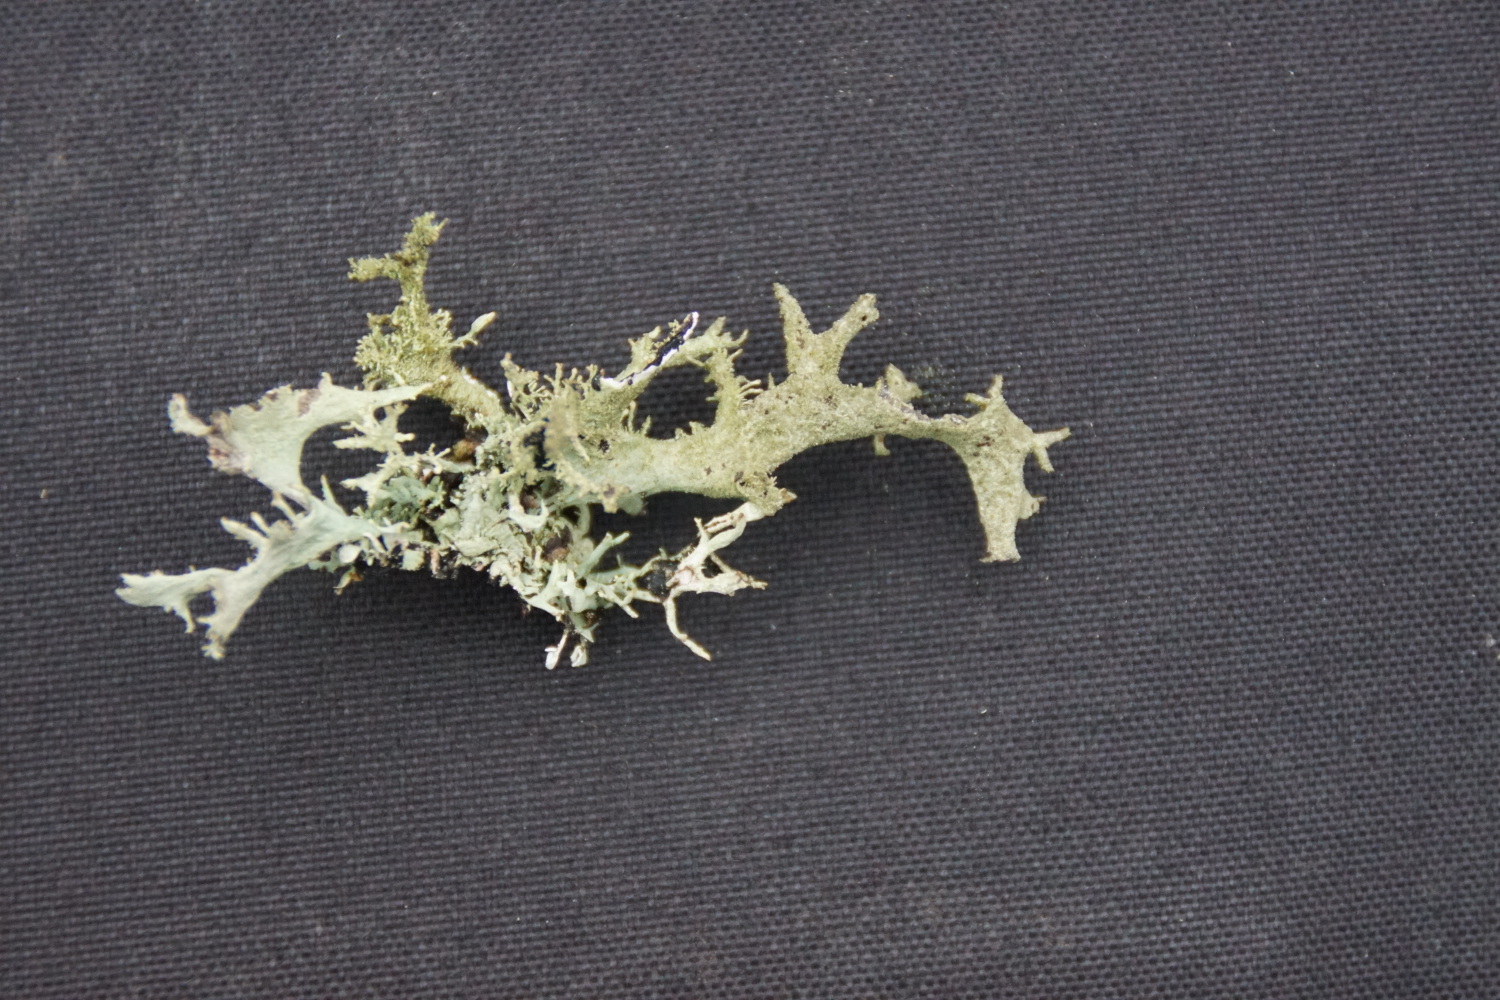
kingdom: Fungi
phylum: Ascomycota
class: Lecanoromycetes
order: Lecanorales
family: Parmeliaceae
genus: Pseudevernia
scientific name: Pseudevernia furfuracea
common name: grå fyrrelav
